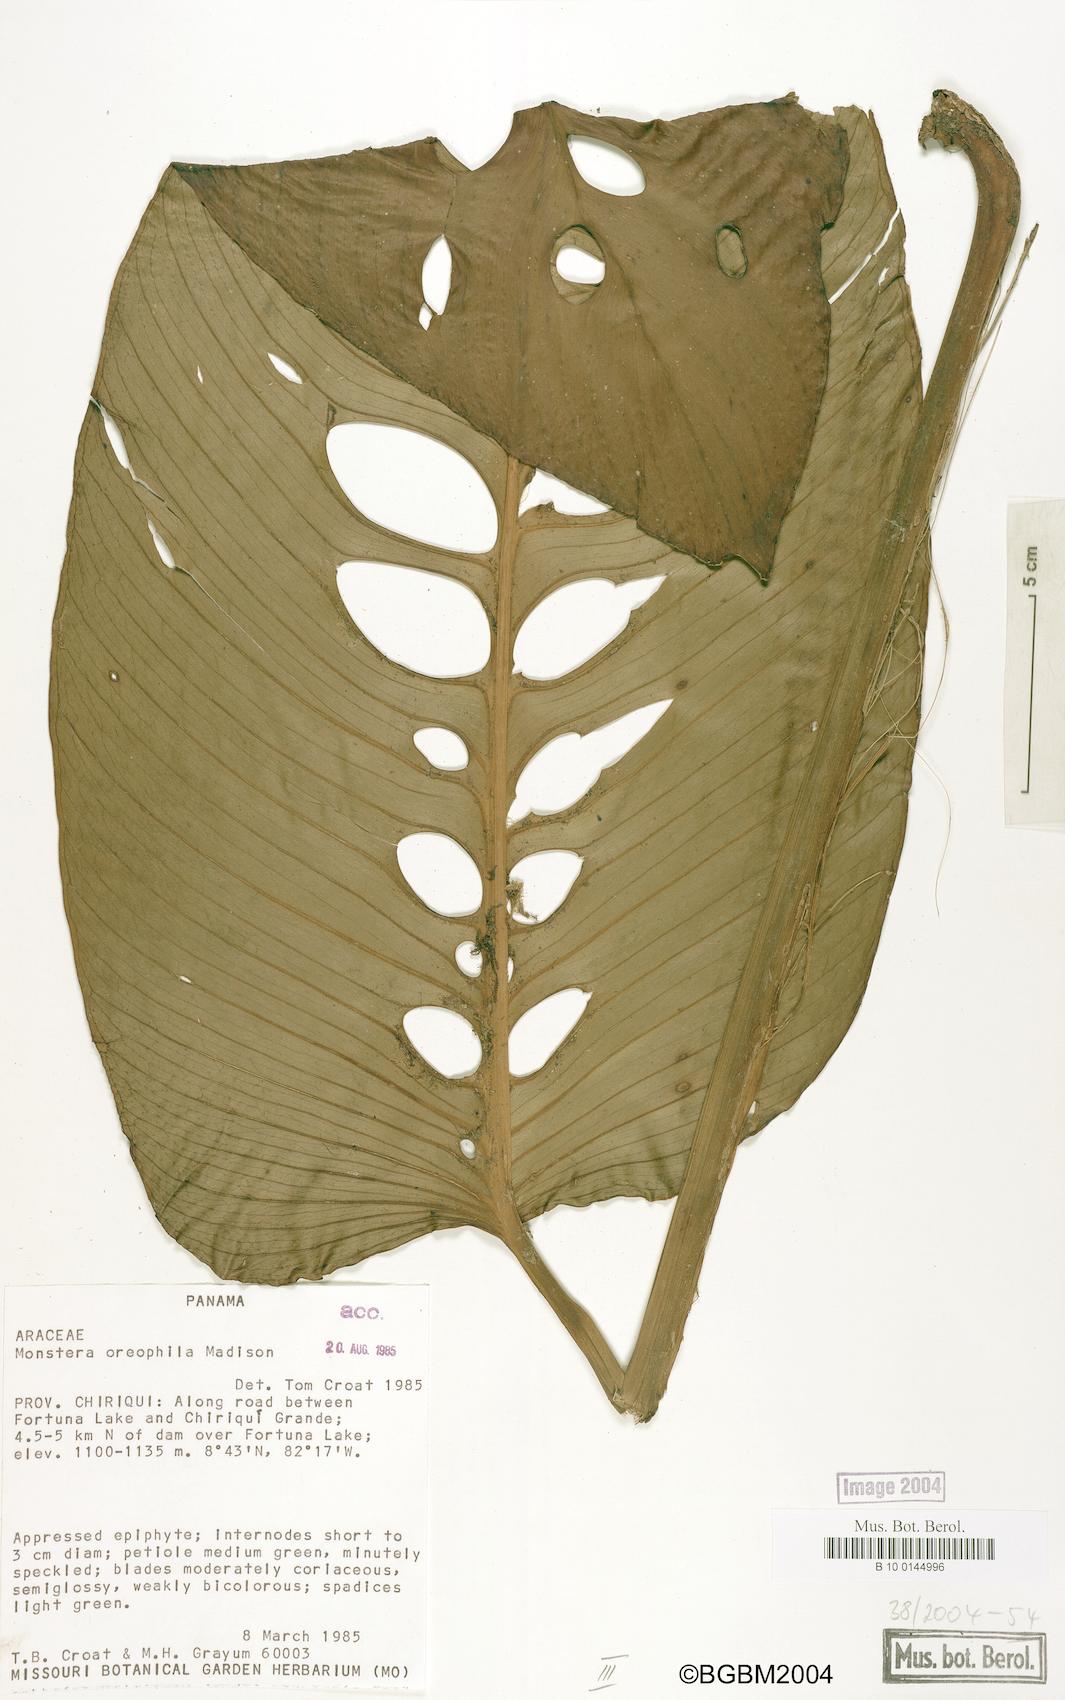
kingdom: Plantae
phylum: Tracheophyta
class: Liliopsida
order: Alismatales
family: Araceae
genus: Monstera
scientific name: Monstera oreophila
